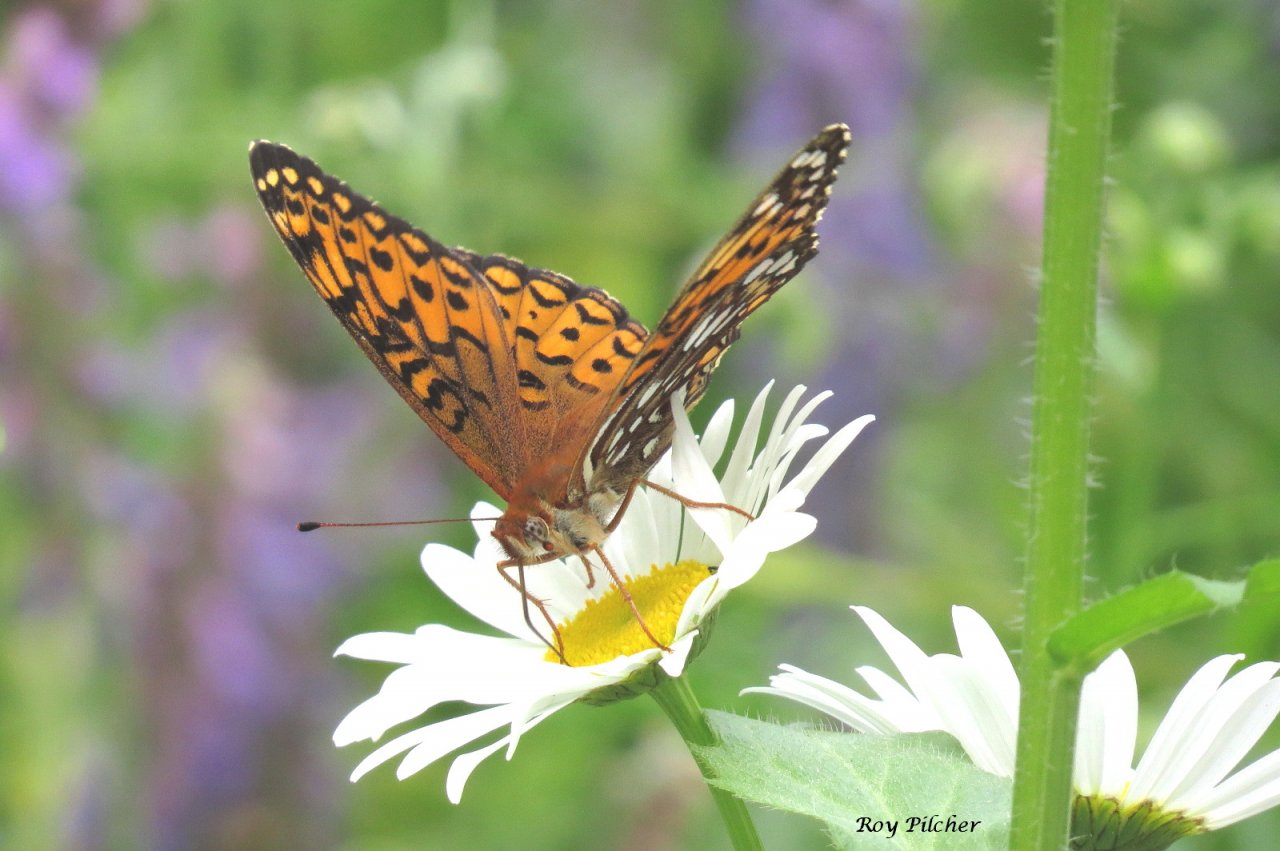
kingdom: Animalia
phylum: Arthropoda
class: Insecta
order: Lepidoptera
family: Nymphalidae
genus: Speyeria
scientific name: Speyeria atlantis
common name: Atlantis Fritillary
